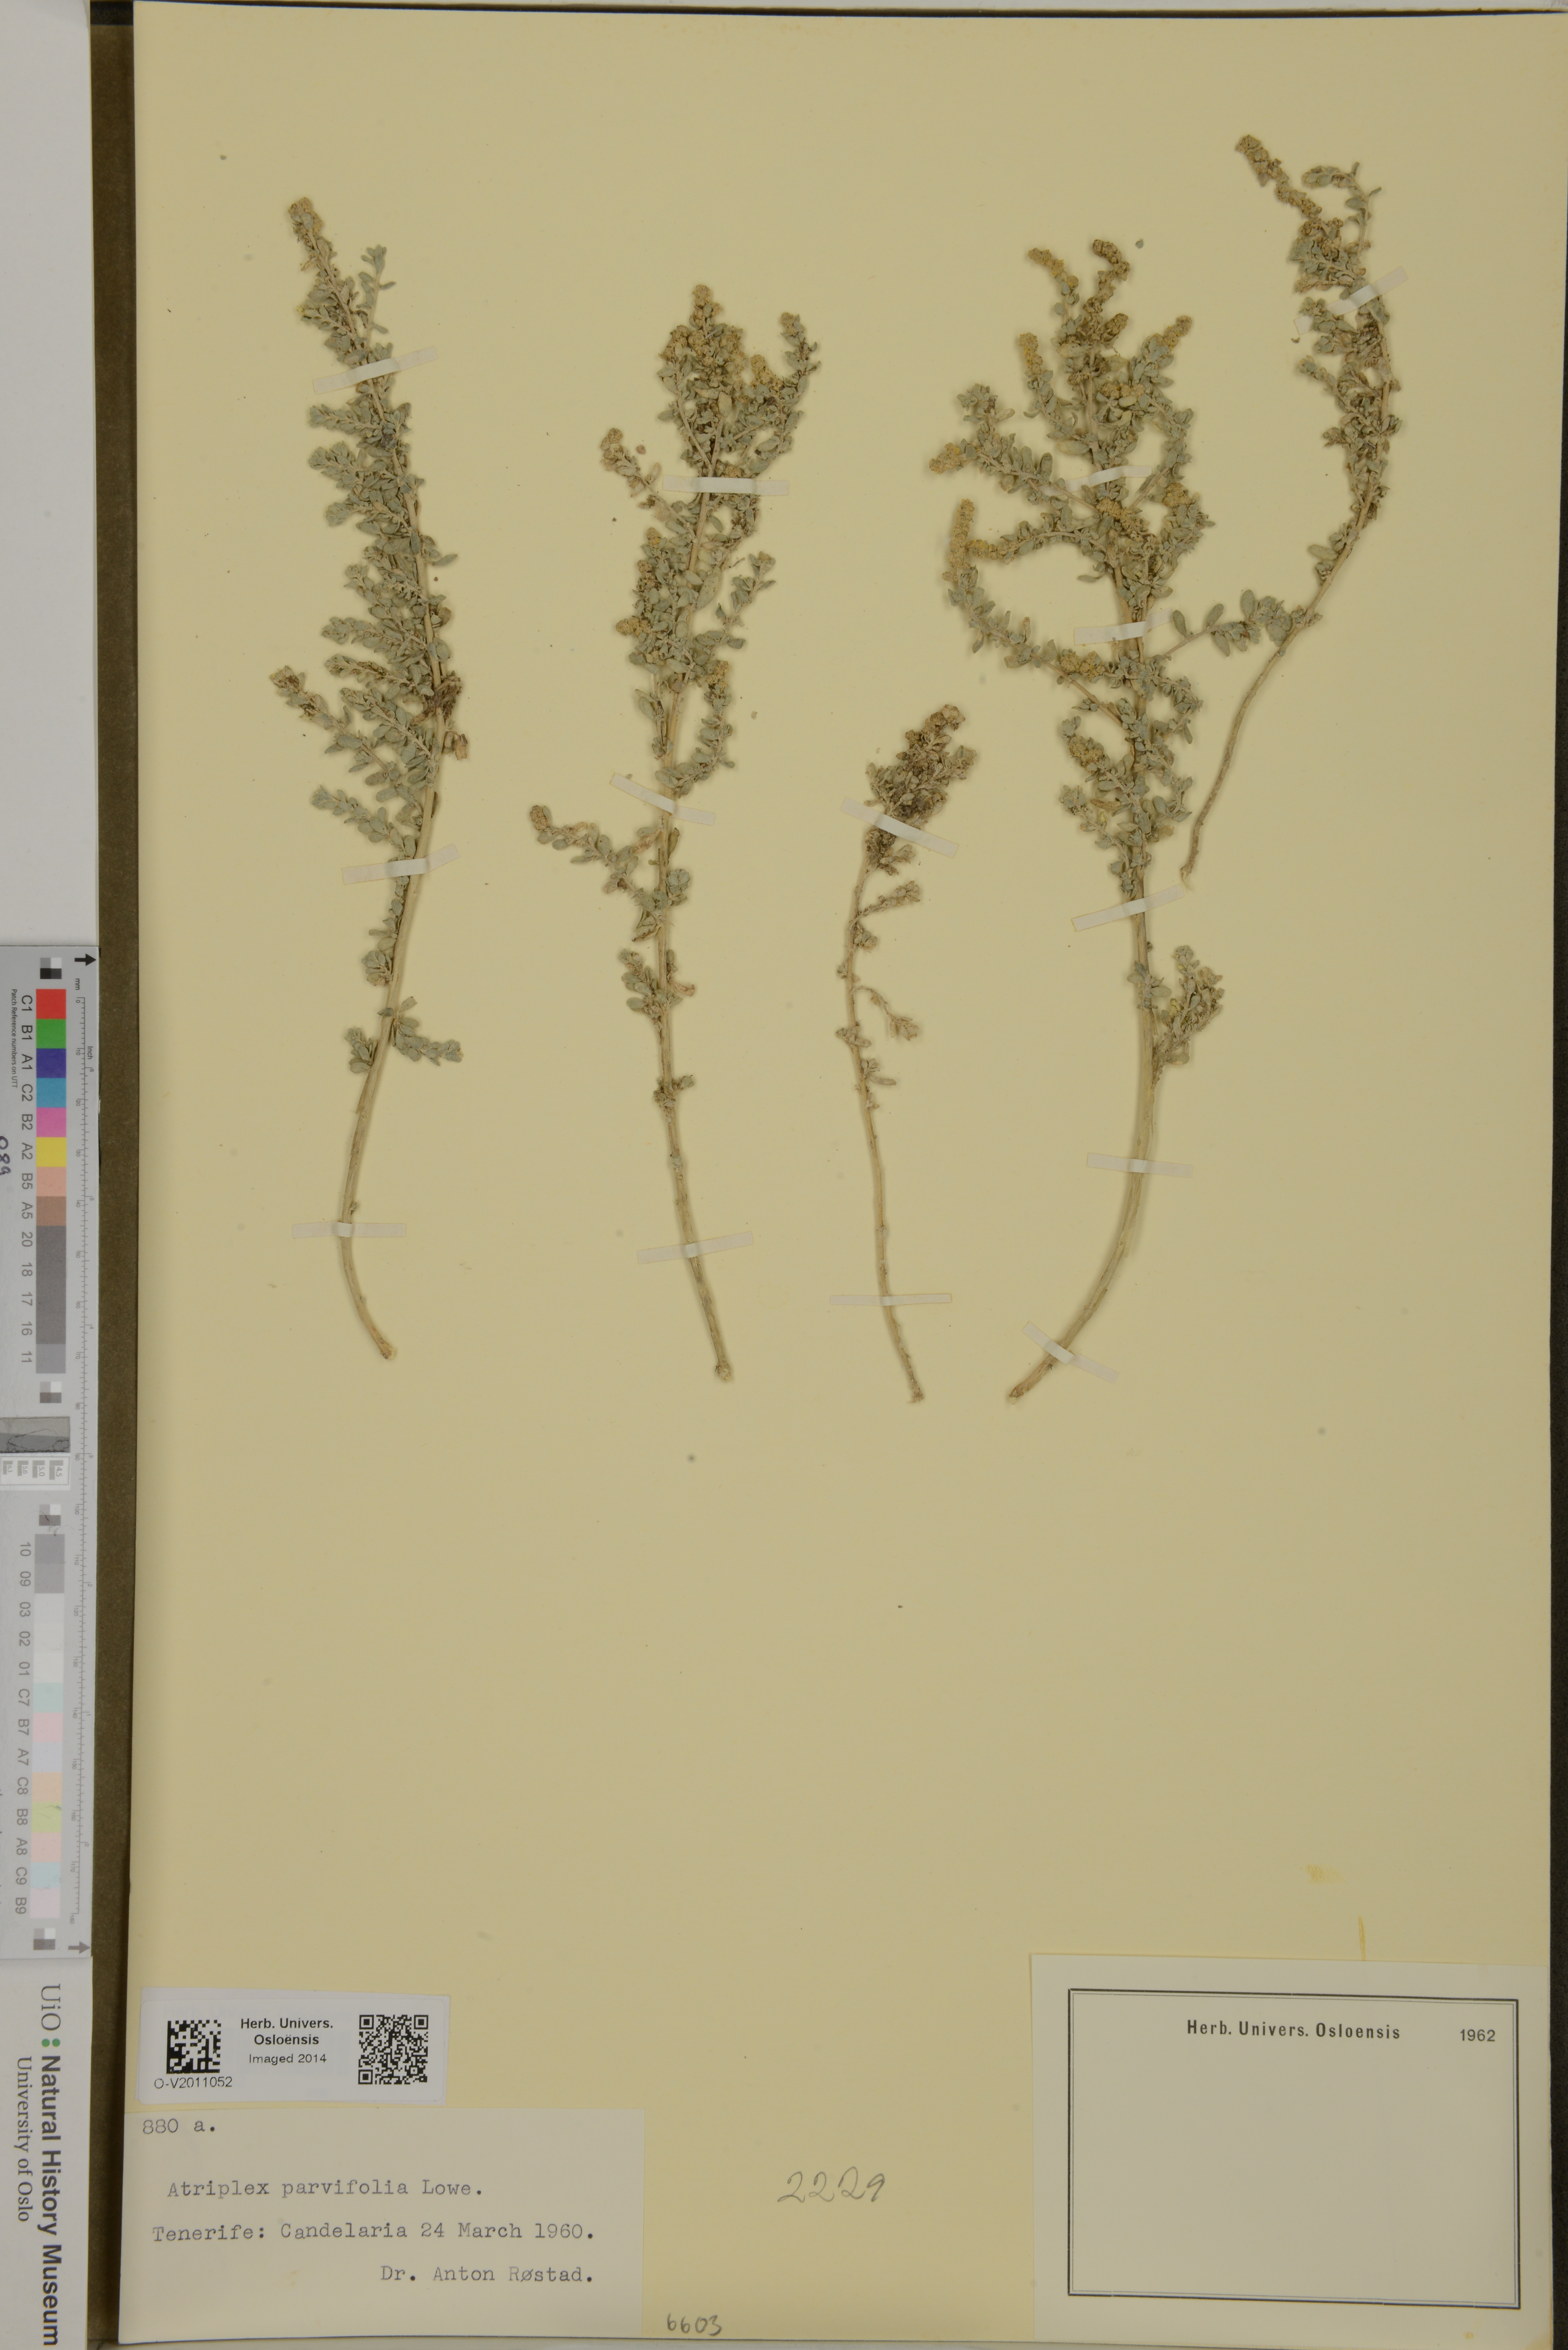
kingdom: Plantae
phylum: Tracheophyta
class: Magnoliopsida
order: Caryophyllales
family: Amaranthaceae
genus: Atriplex
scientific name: Atriplex glauca
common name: Waxy saltbush
